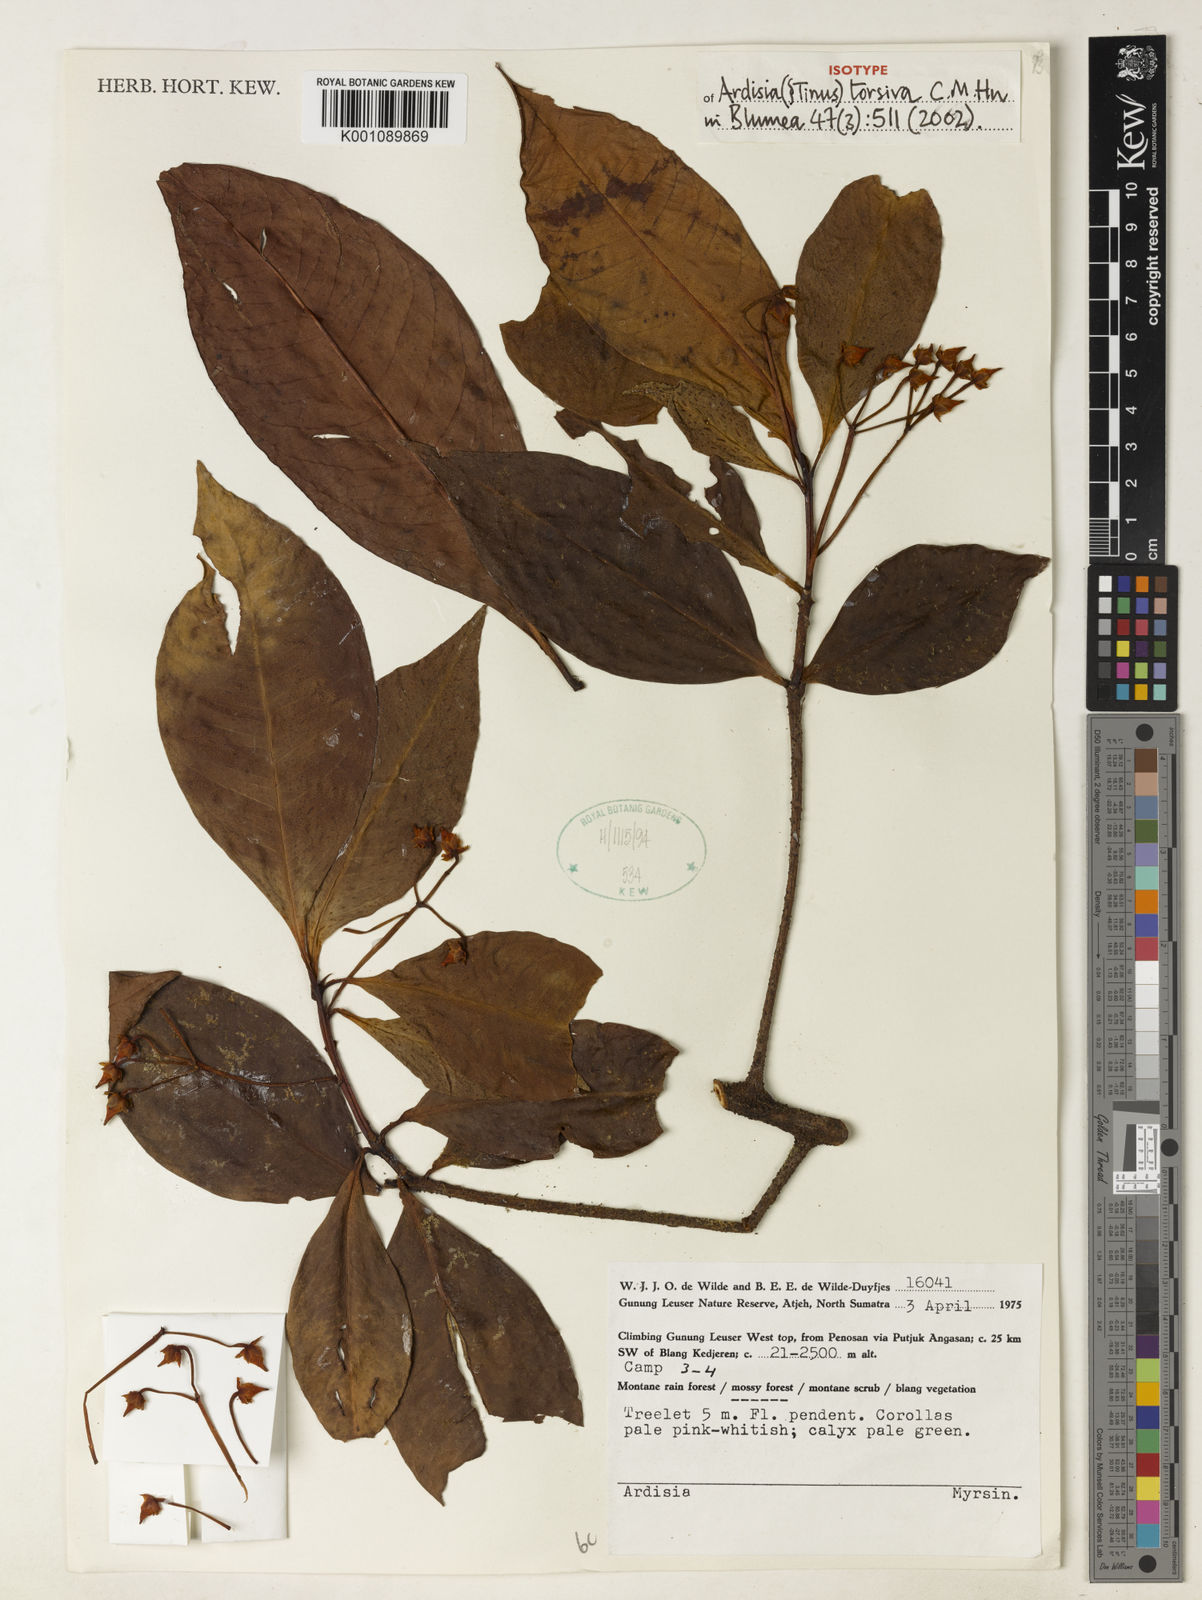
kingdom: Plantae
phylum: Tracheophyta
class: Magnoliopsida
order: Ericales
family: Primulaceae
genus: Ardisia
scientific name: Ardisia torsiva
